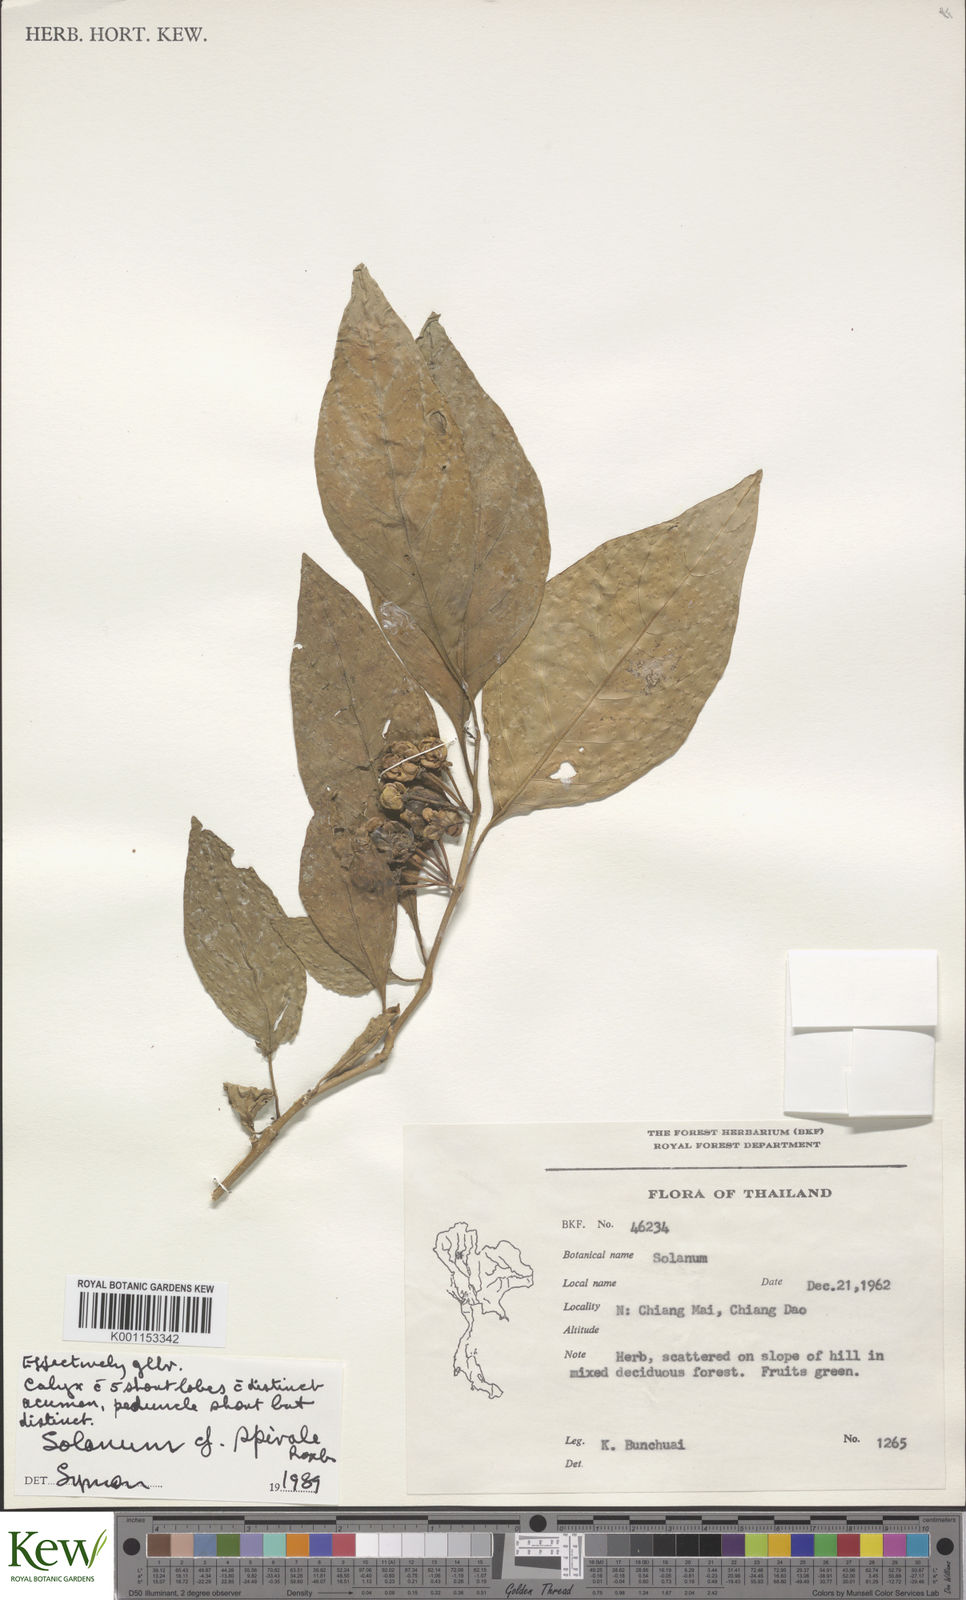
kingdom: Plantae
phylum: Tracheophyta
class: Magnoliopsida
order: Solanales
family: Solanaceae
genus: Solanum
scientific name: Solanum spirale
